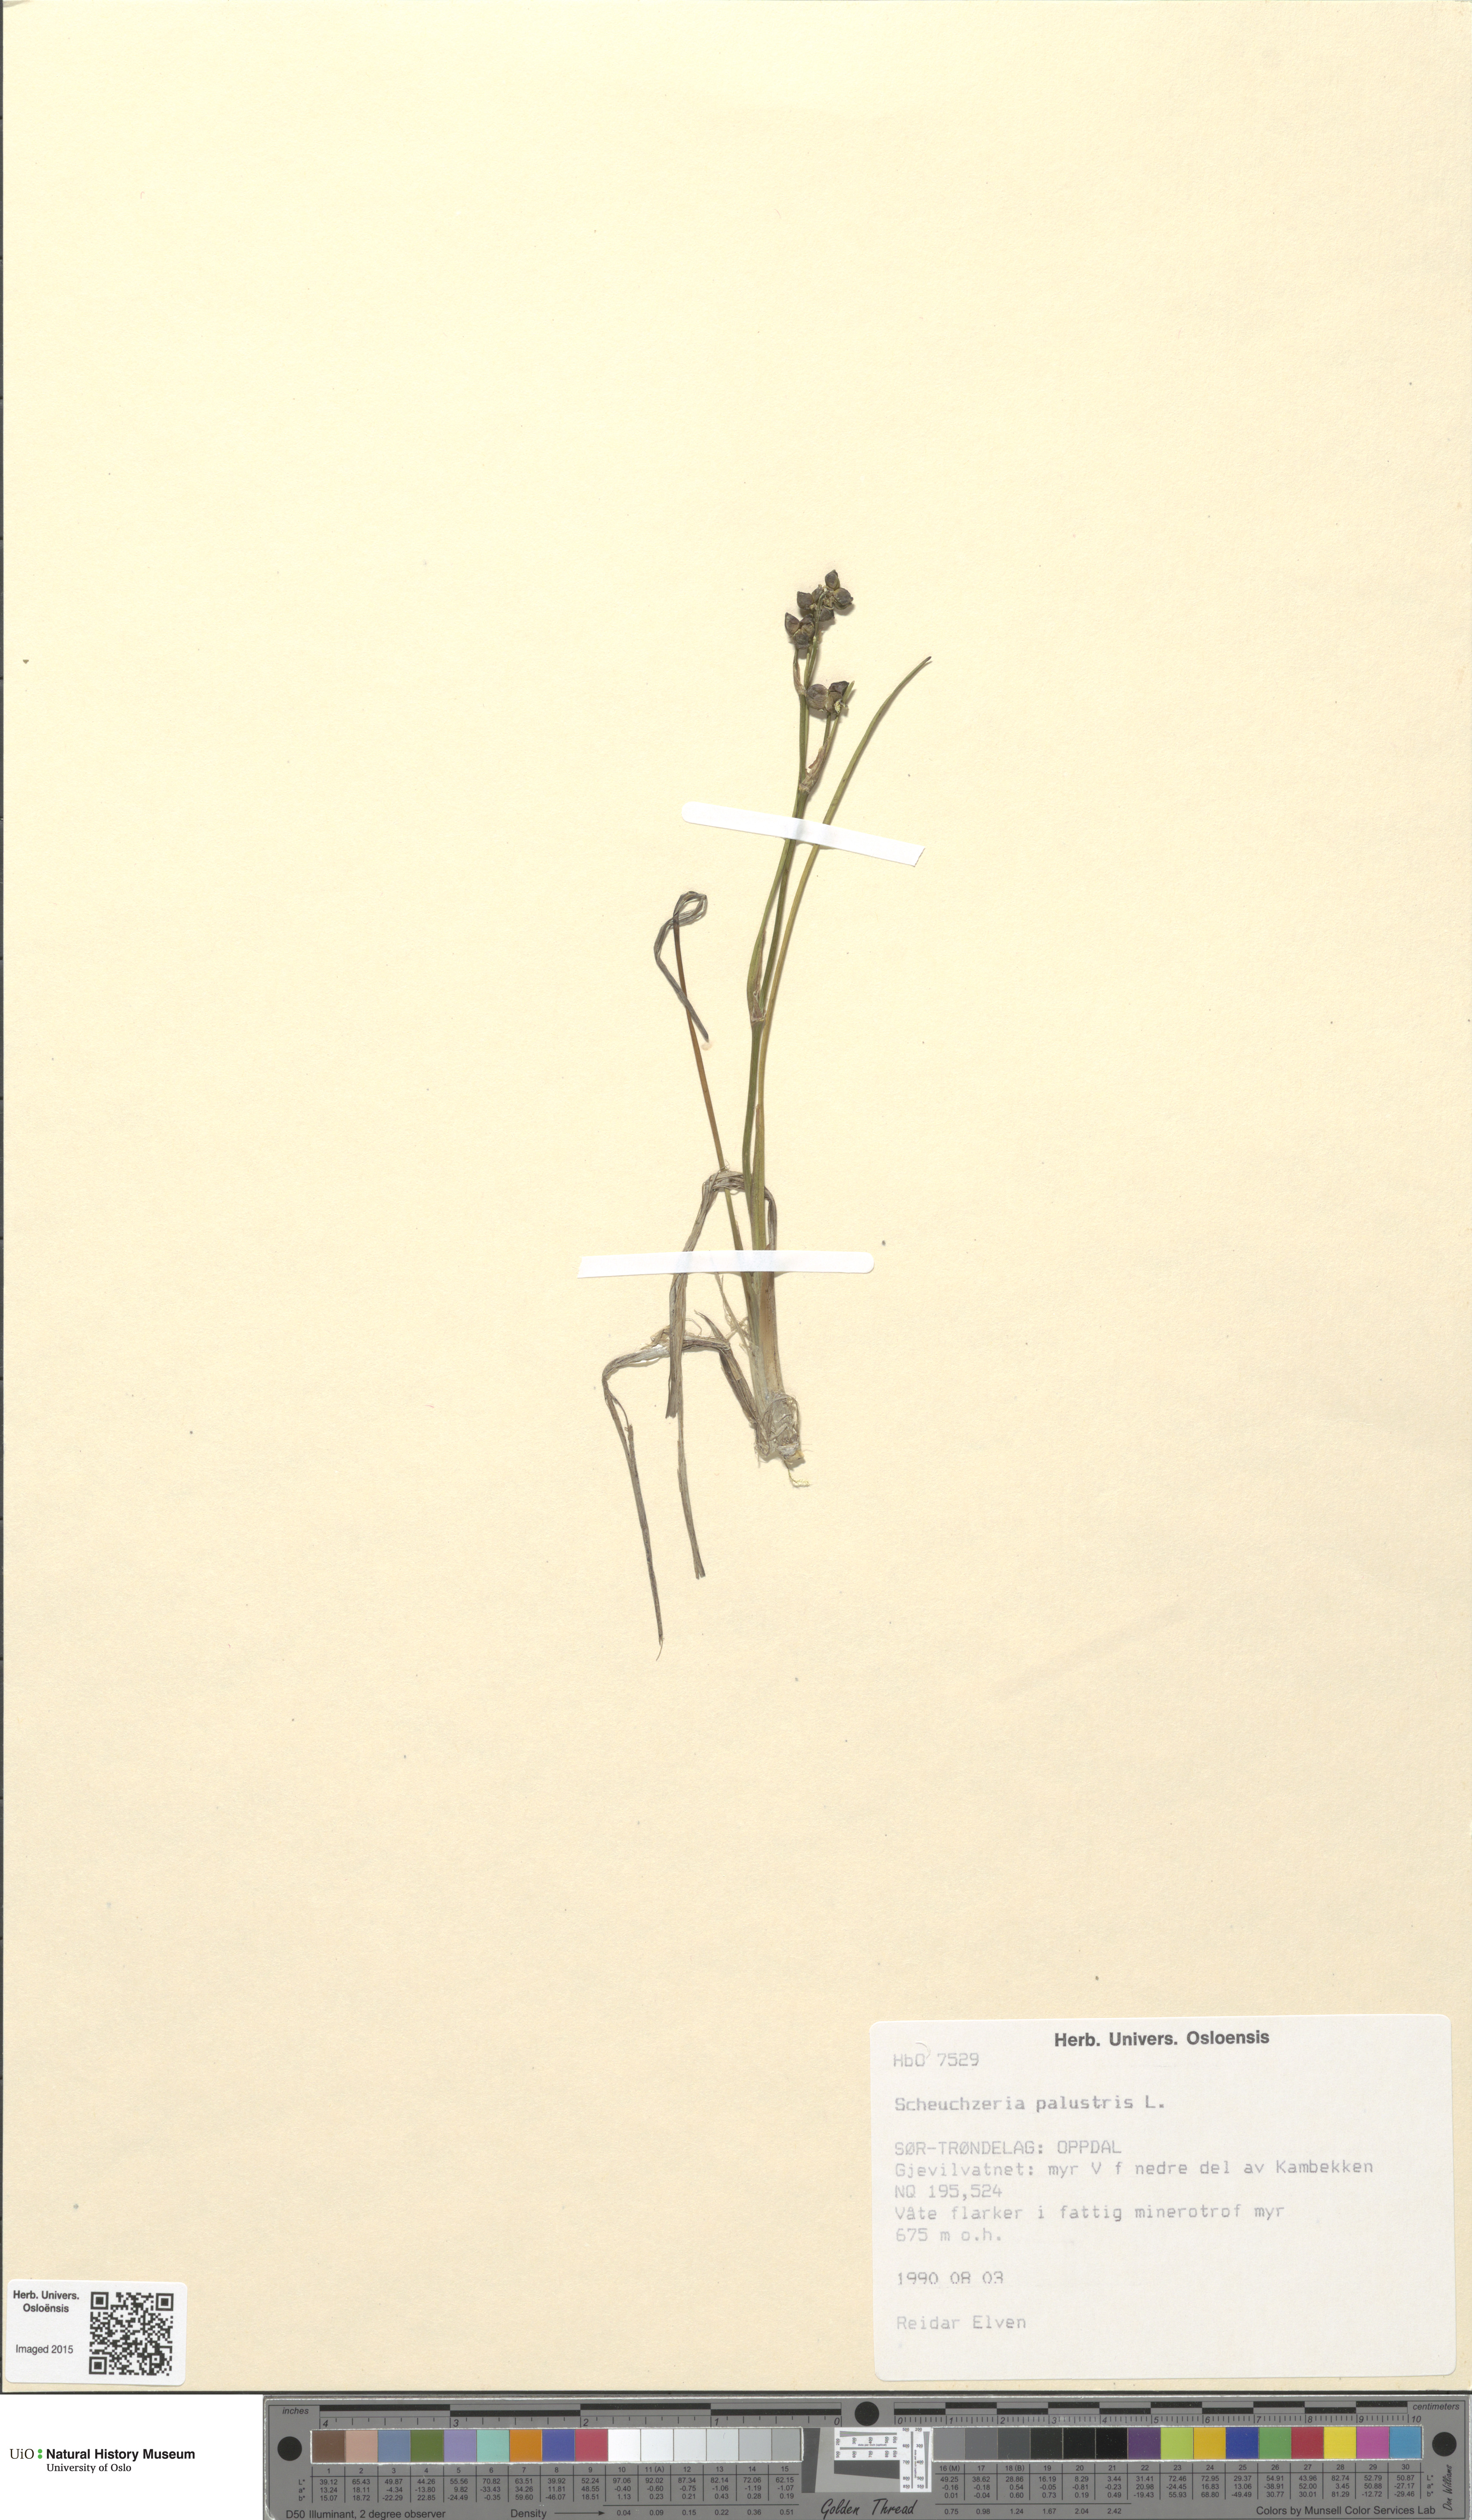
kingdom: Plantae
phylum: Tracheophyta
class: Liliopsida
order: Alismatales
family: Scheuchzeriaceae
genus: Scheuchzeria
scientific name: Scheuchzeria palustris
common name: Rannoch-rush
